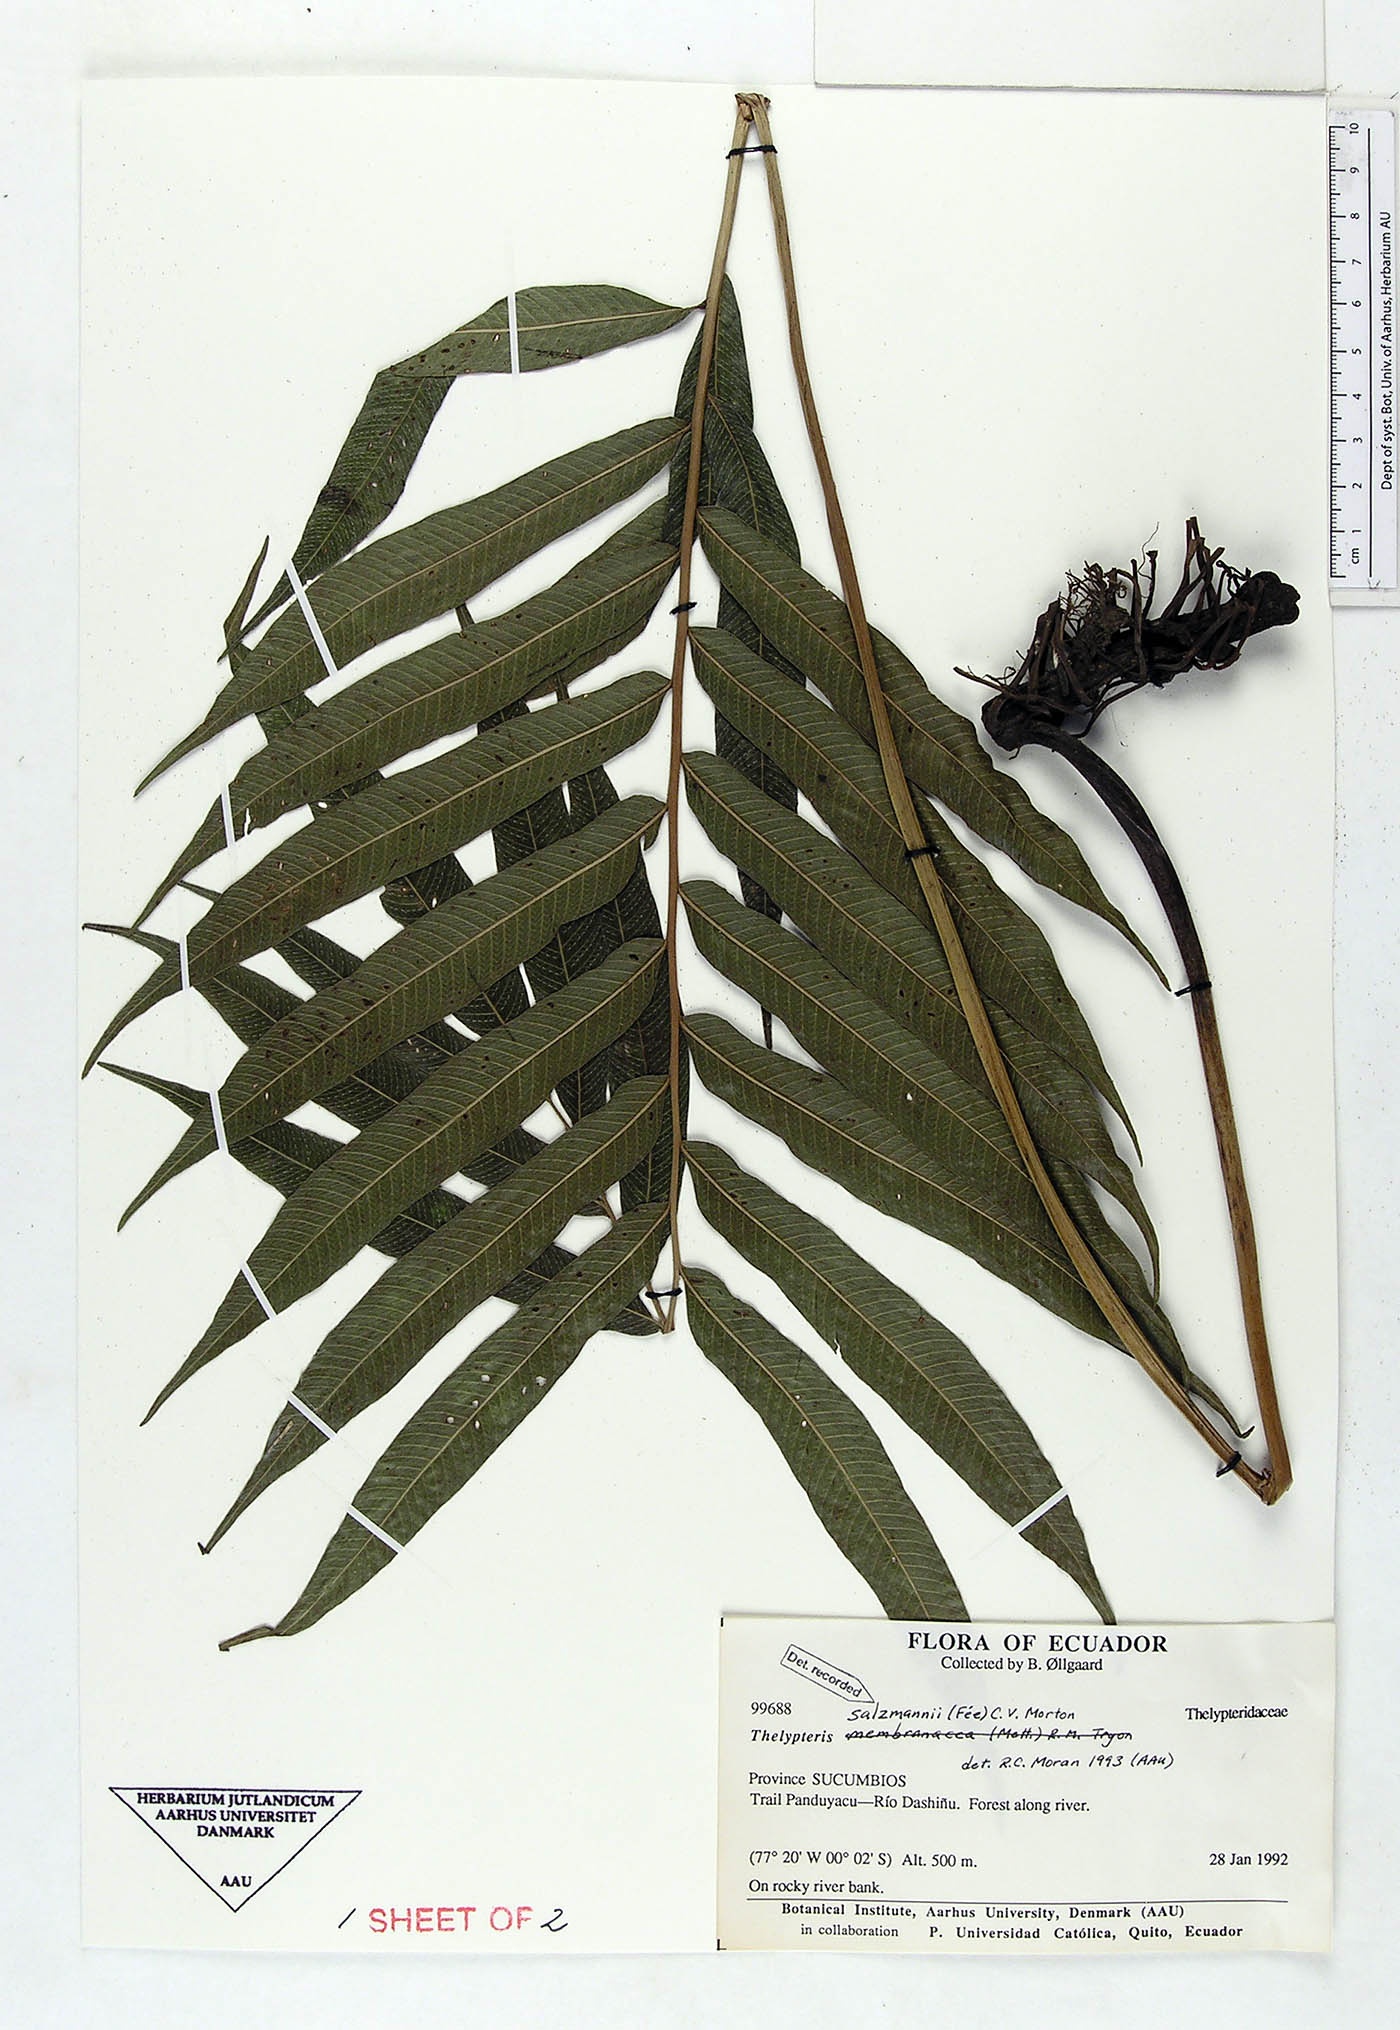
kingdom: Plantae
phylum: Tracheophyta
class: Polypodiopsida
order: Polypodiales
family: Thelypteridaceae
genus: Meniscium
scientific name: Meniscium arborescens
